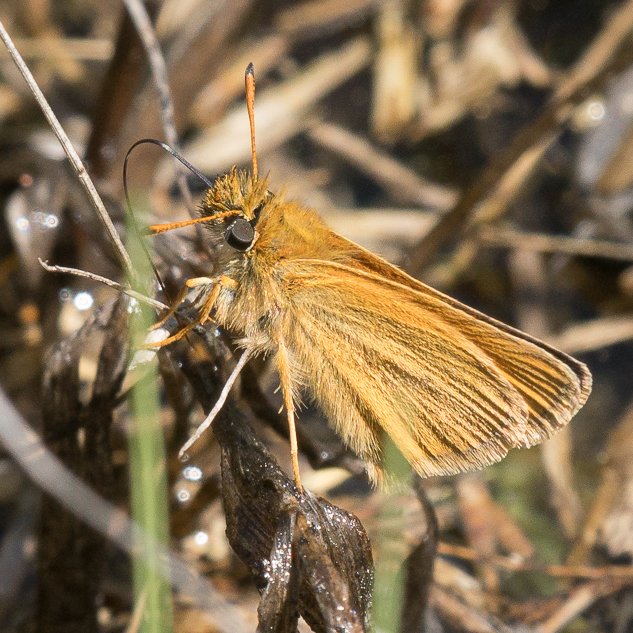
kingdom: Animalia
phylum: Arthropoda
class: Insecta
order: Lepidoptera
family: Hesperiidae
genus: Thymelicus
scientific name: Thymelicus lineola
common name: European Skipper
